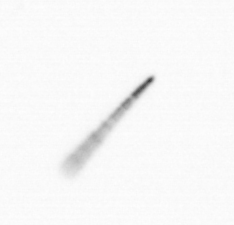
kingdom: Chromista
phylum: Ochrophyta
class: Bacillariophyceae
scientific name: Bacillariophyceae
